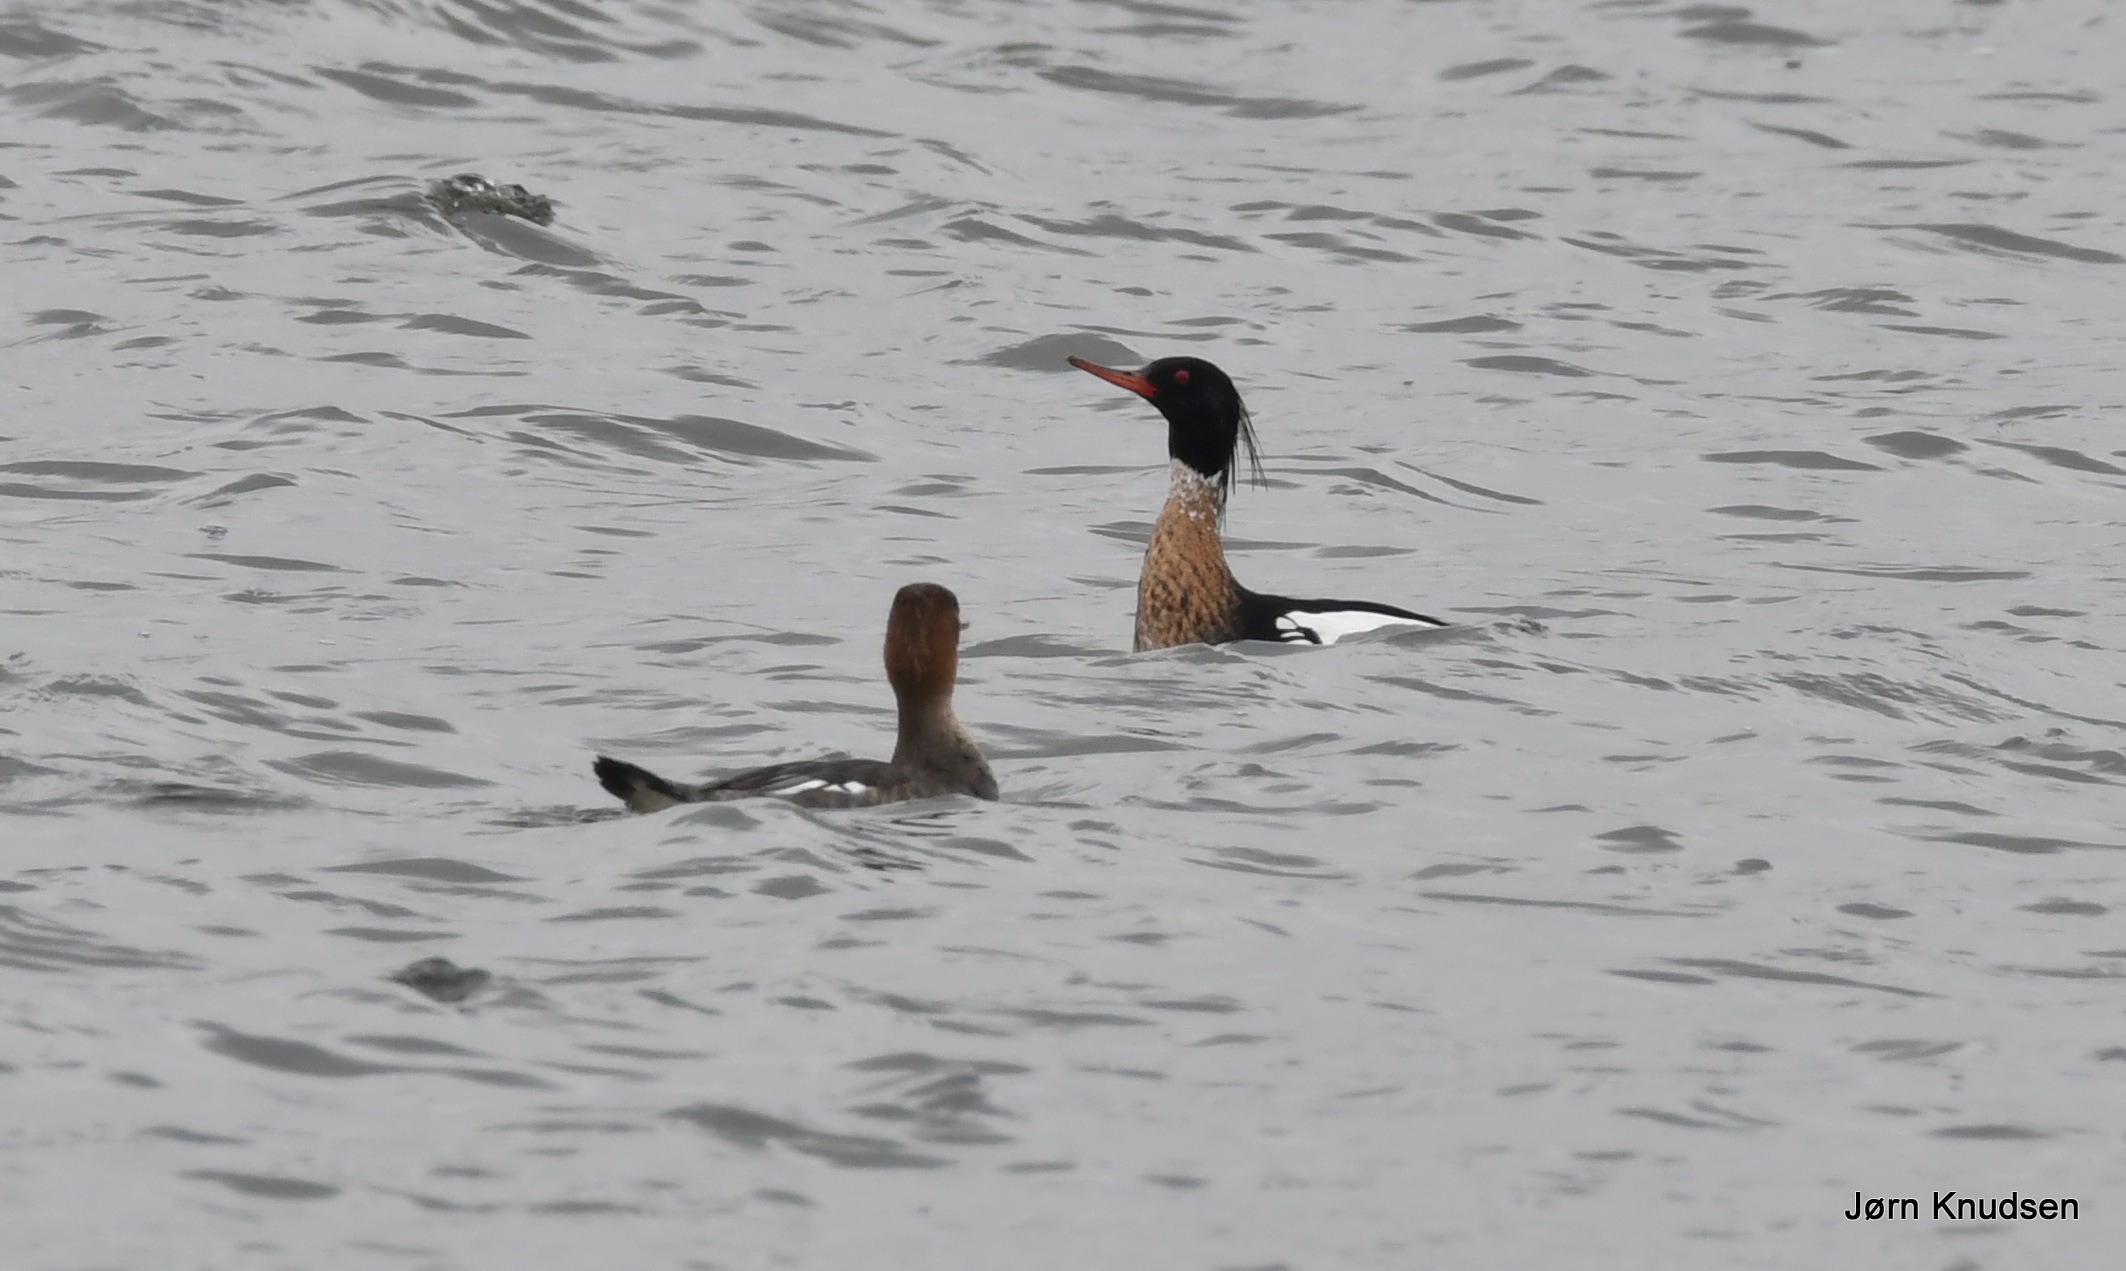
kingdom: Animalia
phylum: Chordata
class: Aves
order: Anseriformes
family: Anatidae
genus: Mergus
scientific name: Mergus serrator
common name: Toppet skallesluger
